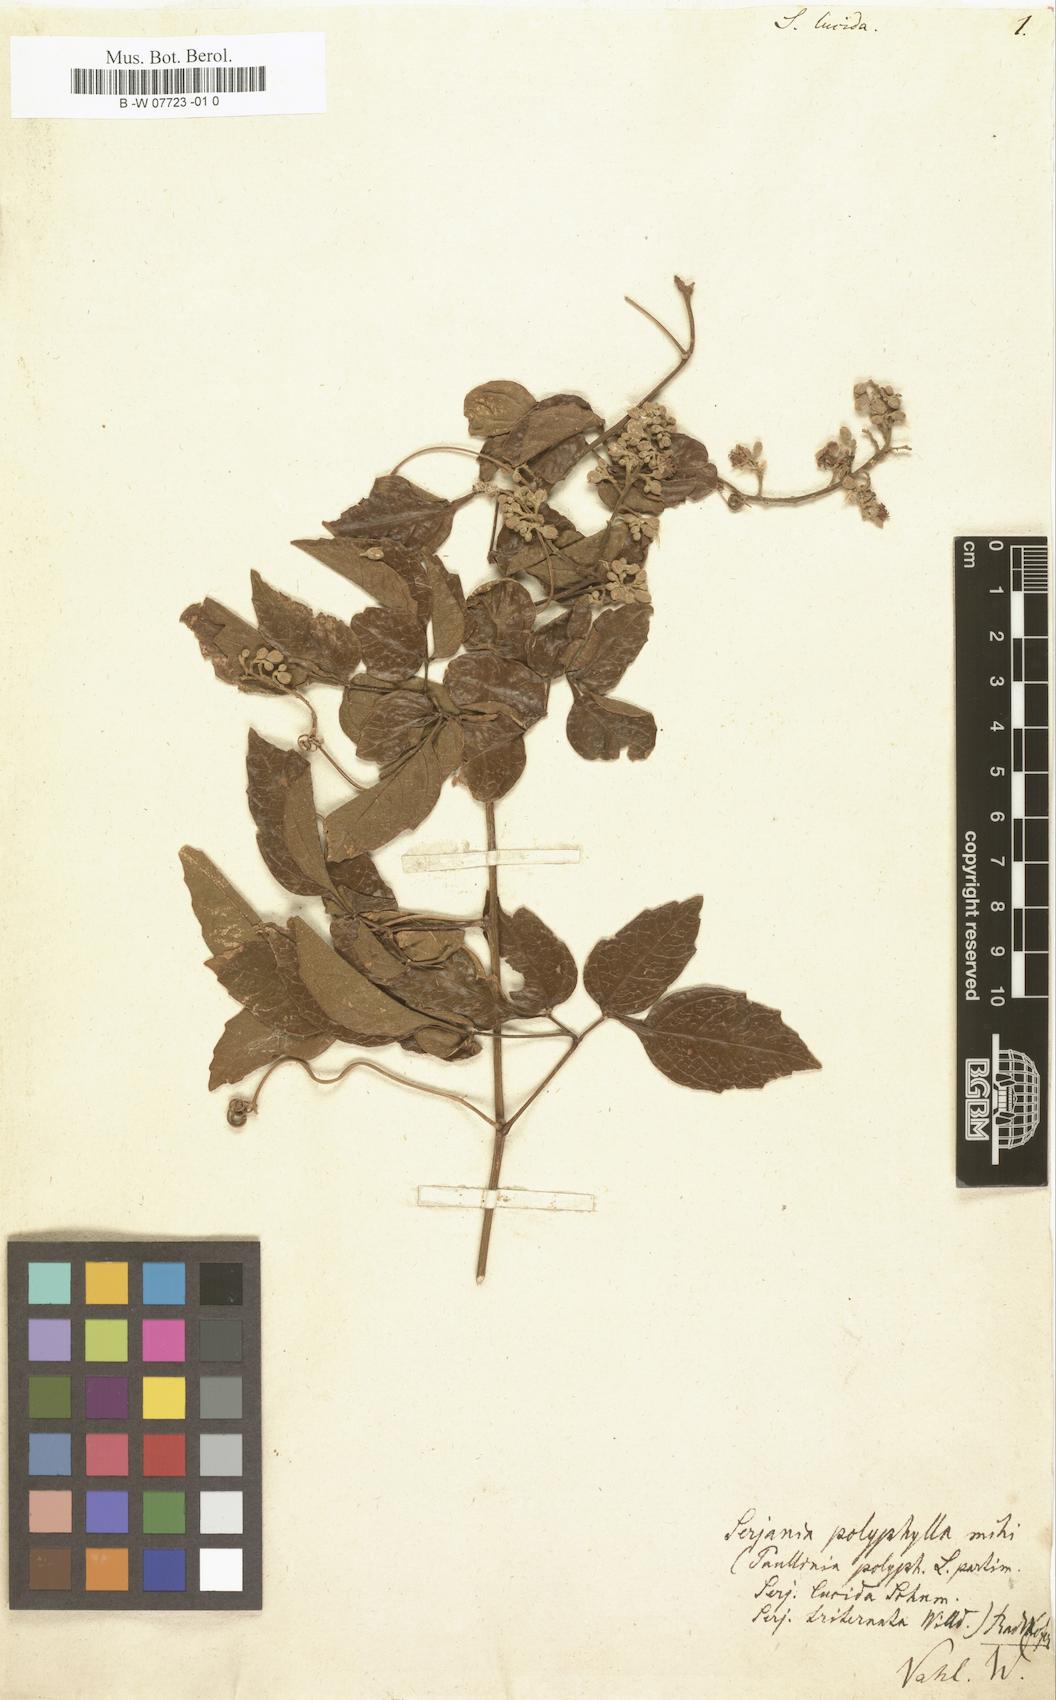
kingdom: Plantae
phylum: Tracheophyta
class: Magnoliopsida
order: Sapindales
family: Sapindaceae
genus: Serjania
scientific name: Serjania lucida
